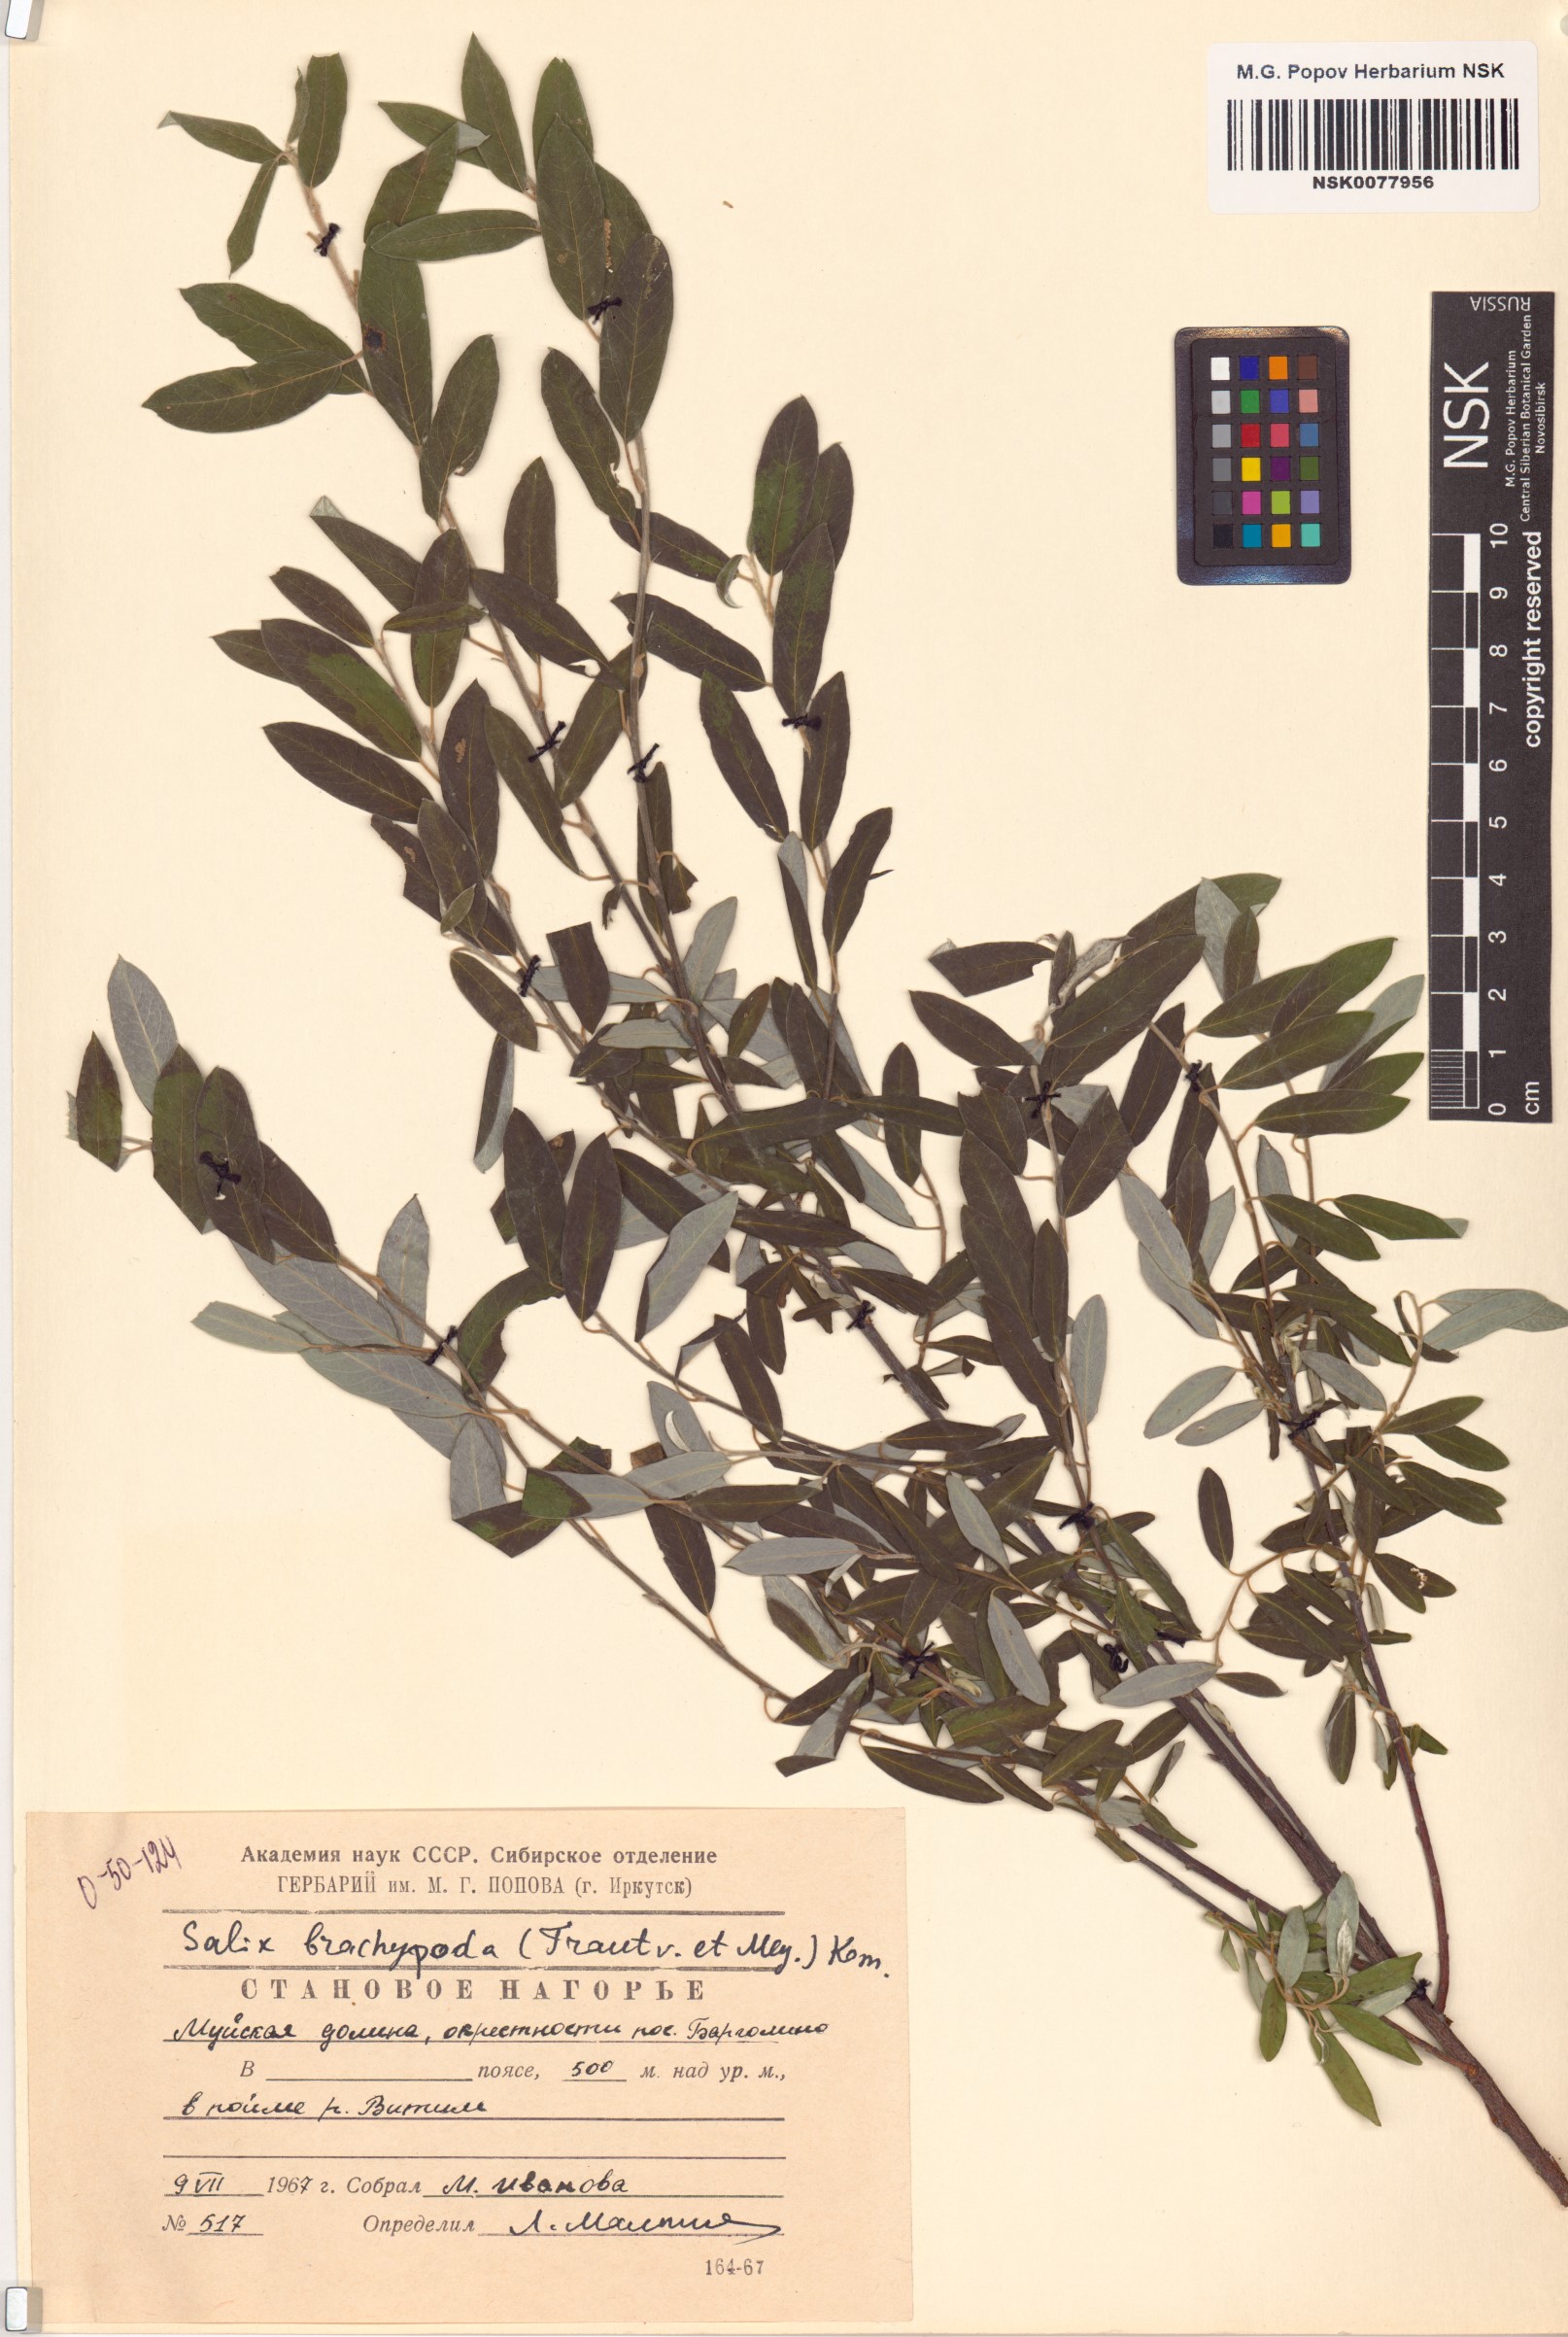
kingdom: Plantae
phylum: Tracheophyta
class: Magnoliopsida
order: Malpighiales
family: Salicaceae
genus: Salix
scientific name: Salix brachypoda
